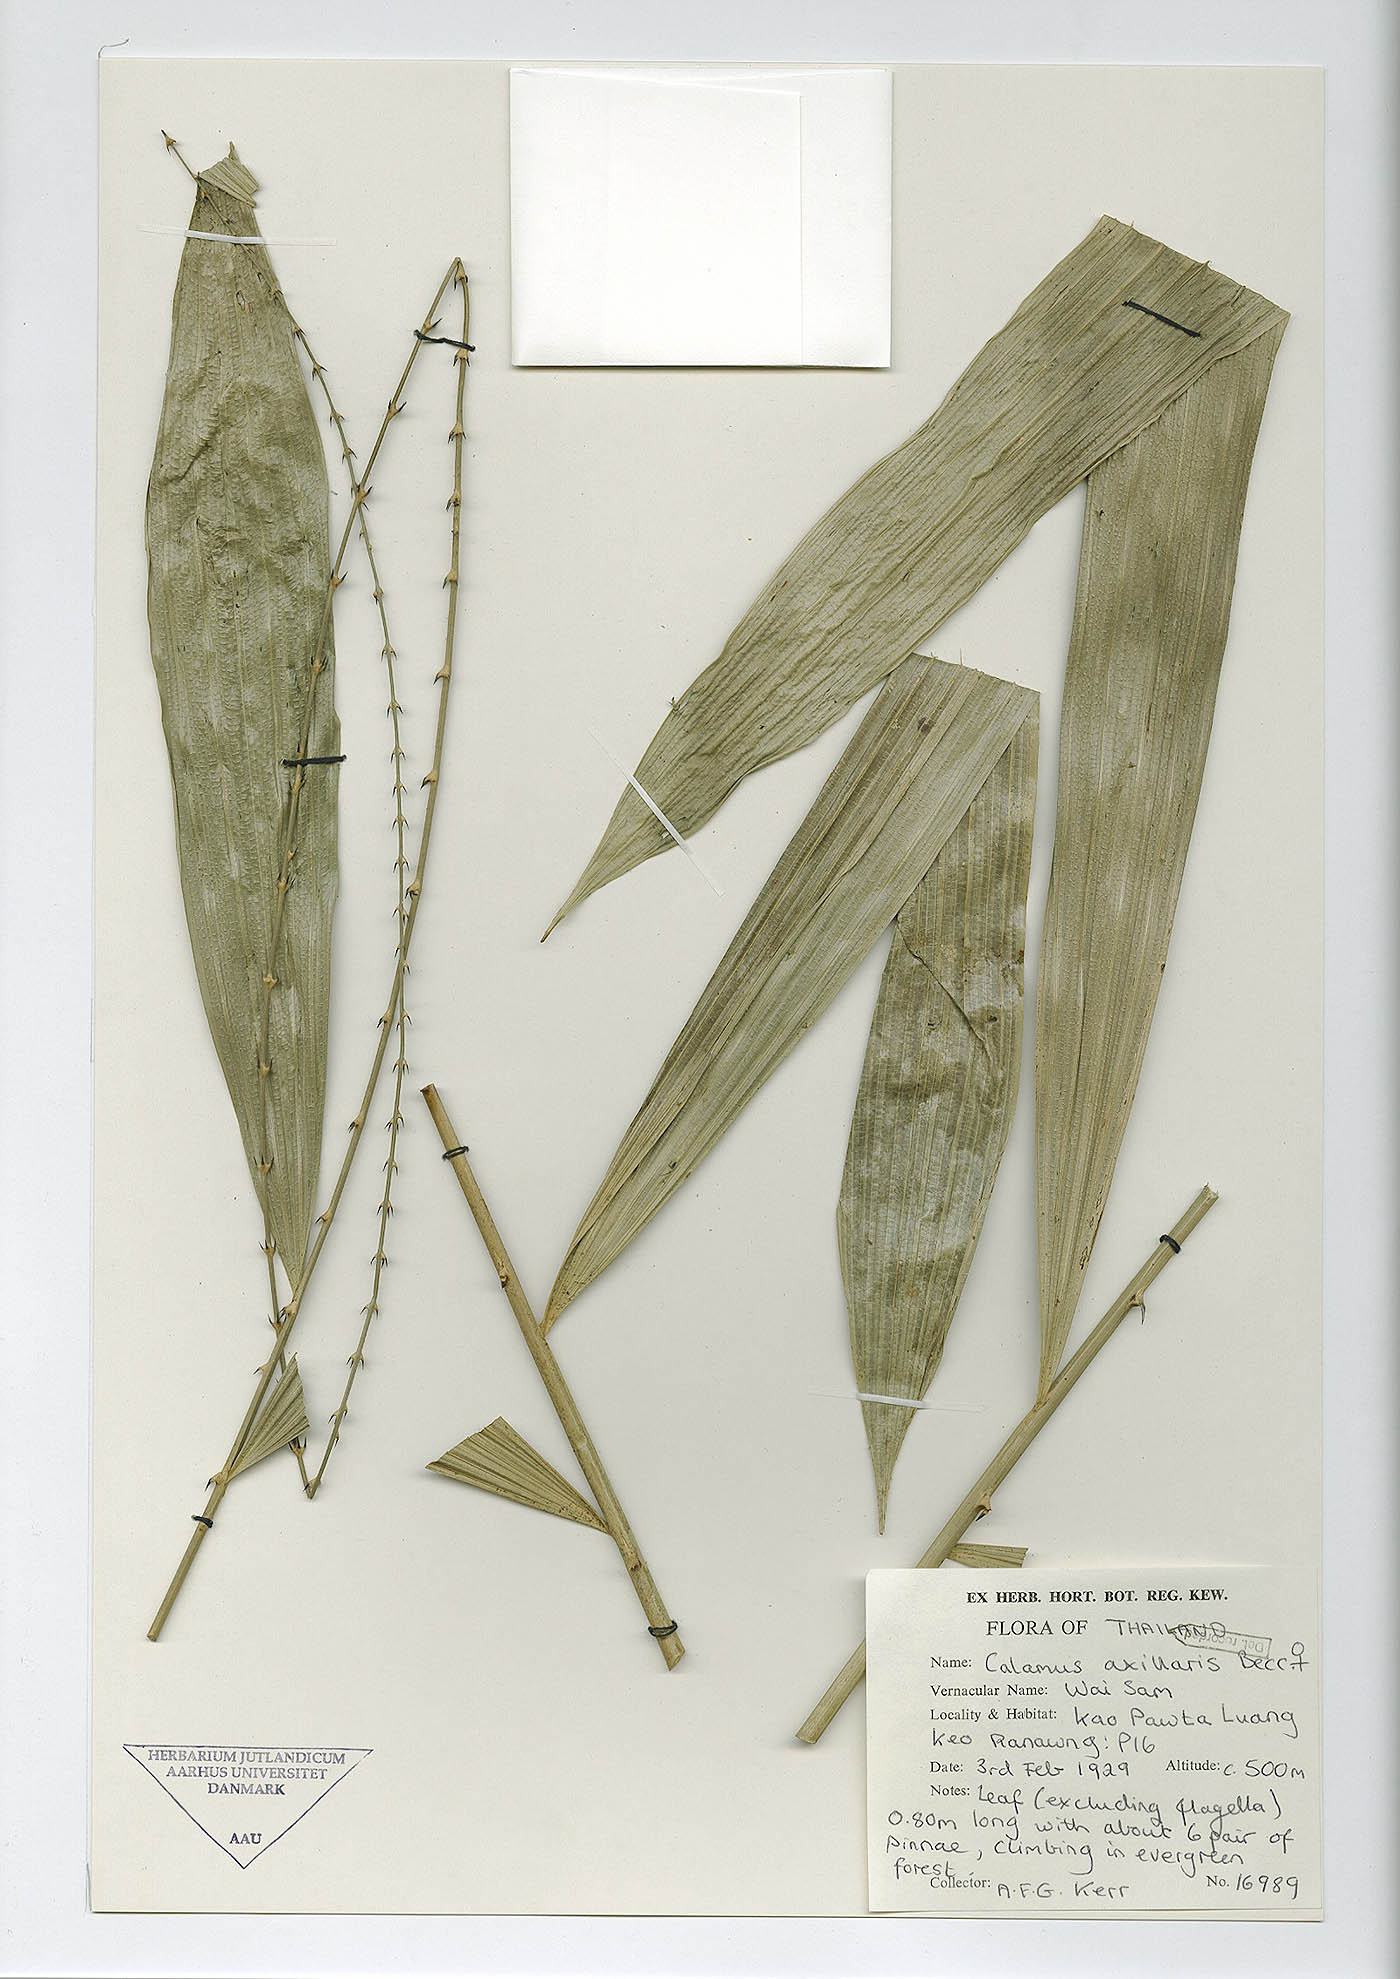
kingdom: Plantae
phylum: Tracheophyta
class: Liliopsida
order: Arecales
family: Arecaceae
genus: Calamus
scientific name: Calamus axillaris
